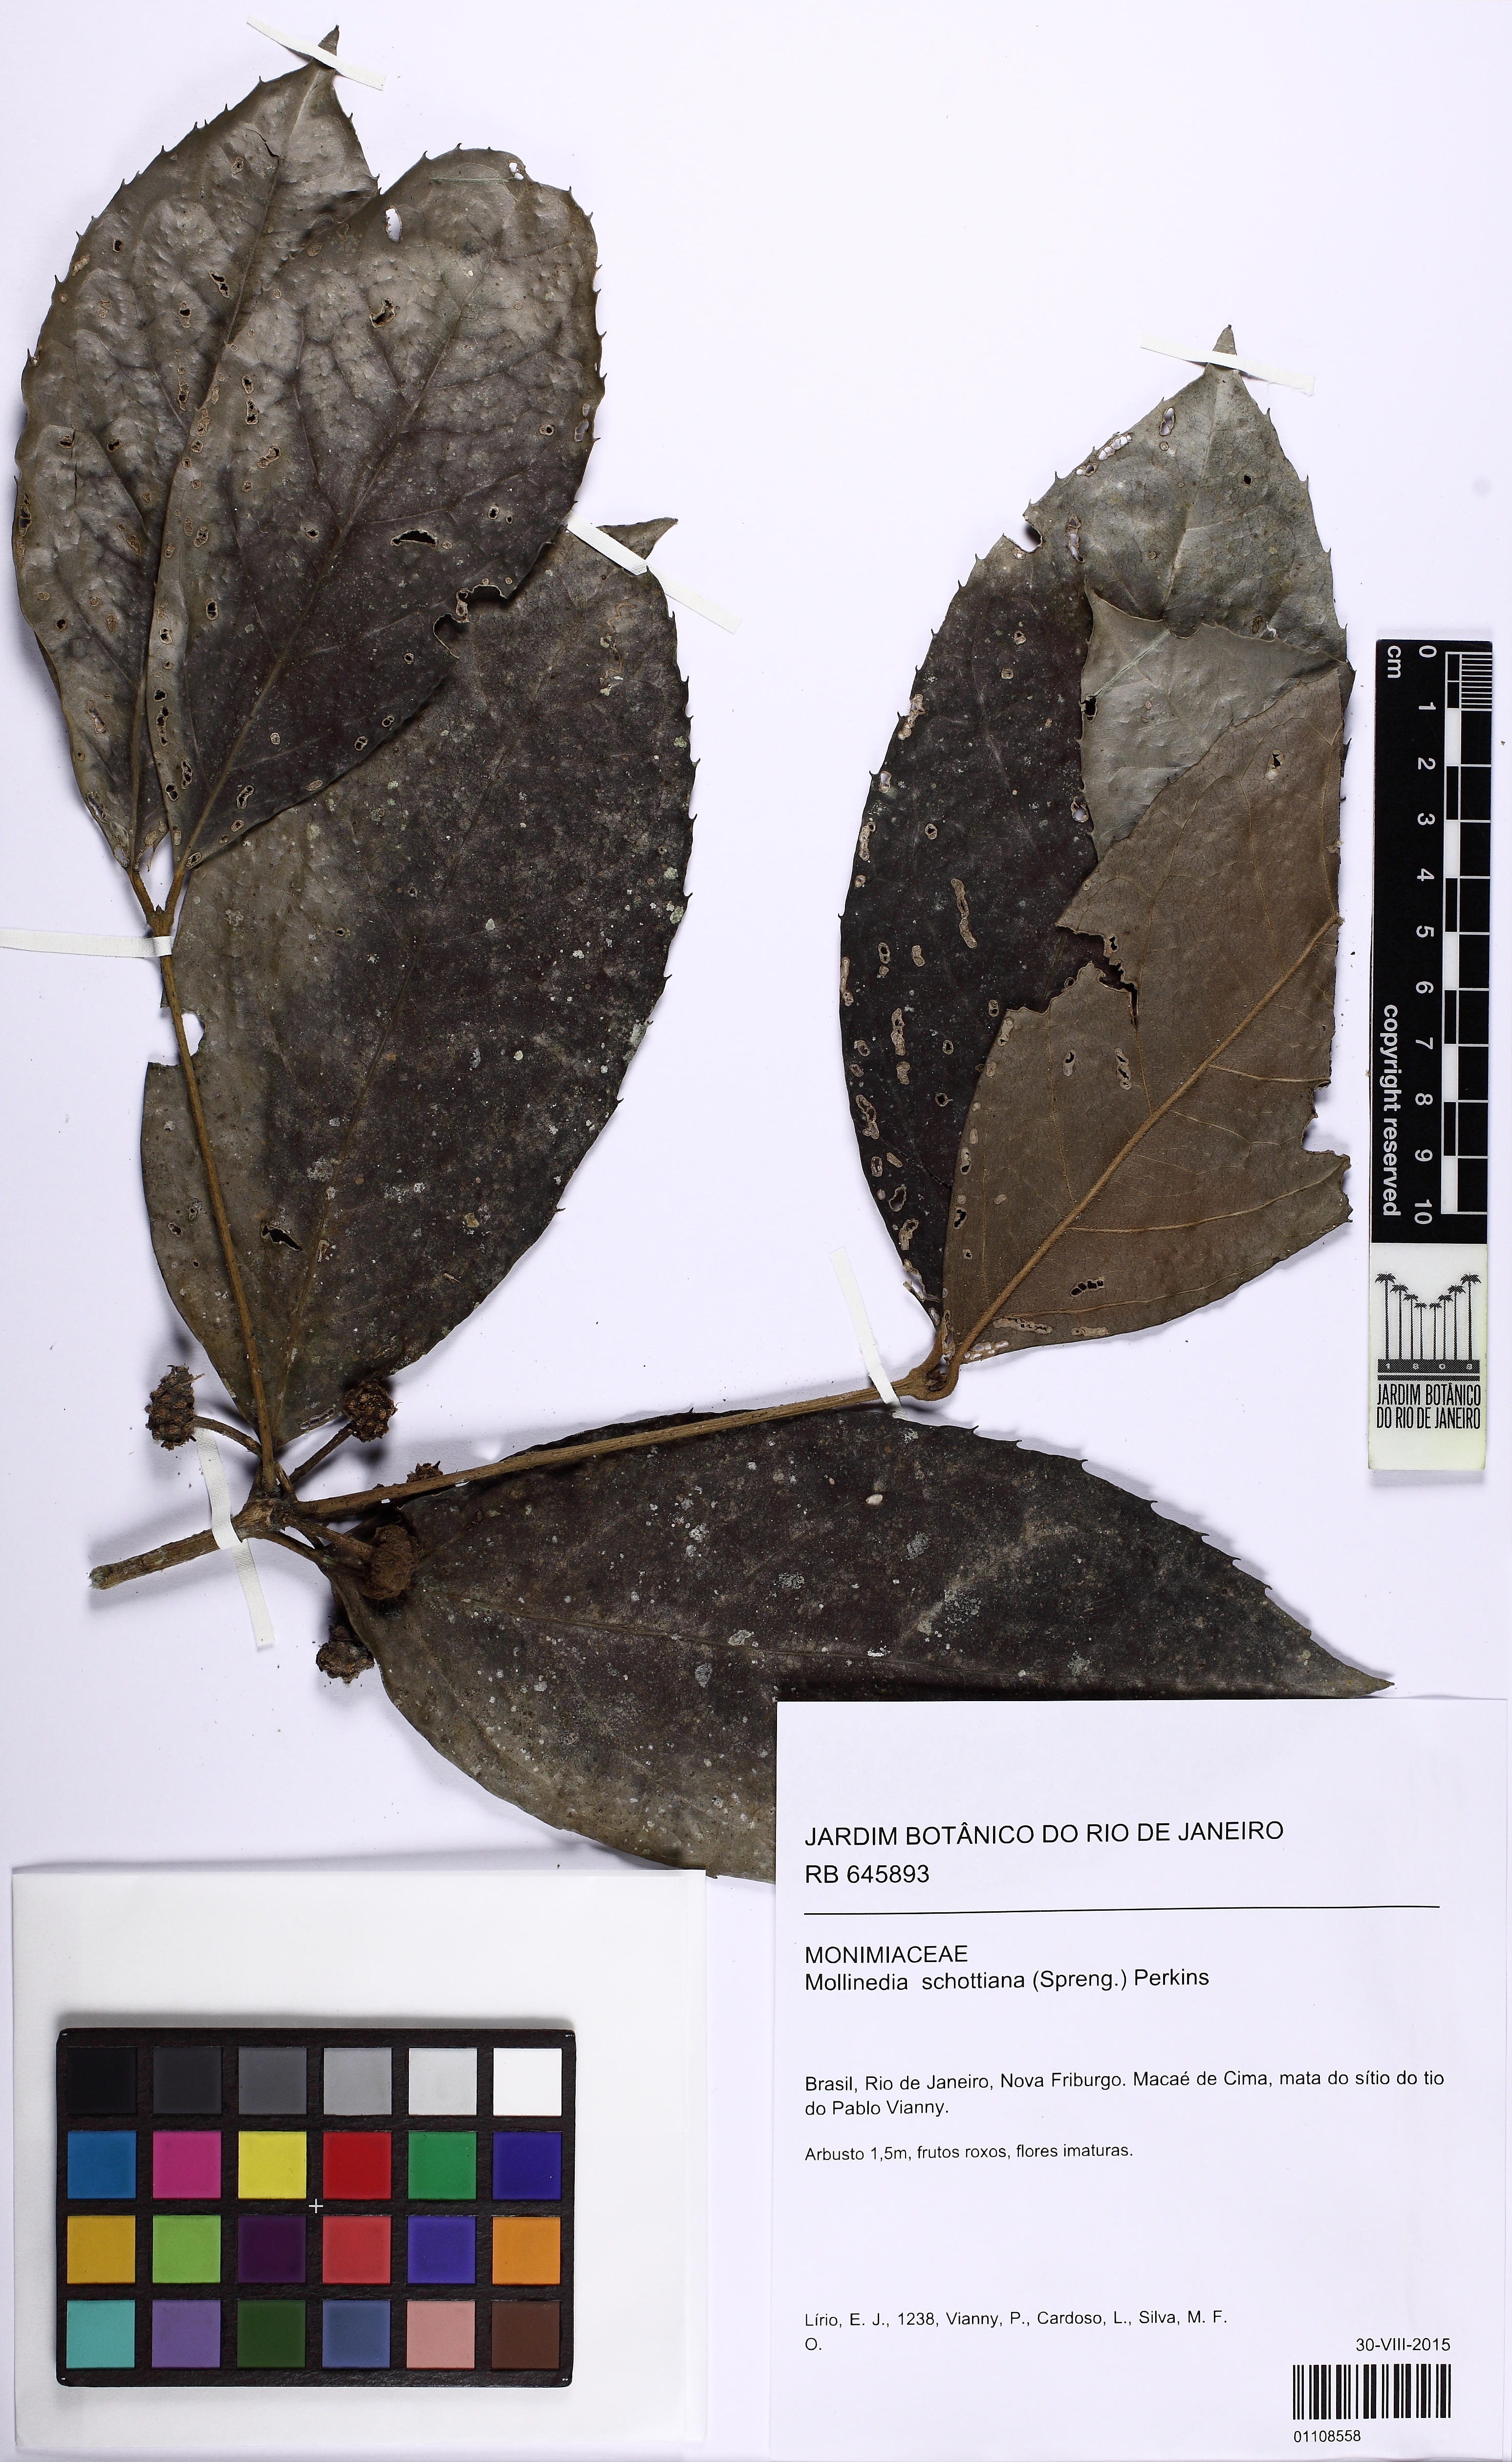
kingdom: Plantae
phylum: Tracheophyta
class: Magnoliopsida
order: Laurales
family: Monimiaceae
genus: Mollinedia
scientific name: Mollinedia umbellata
